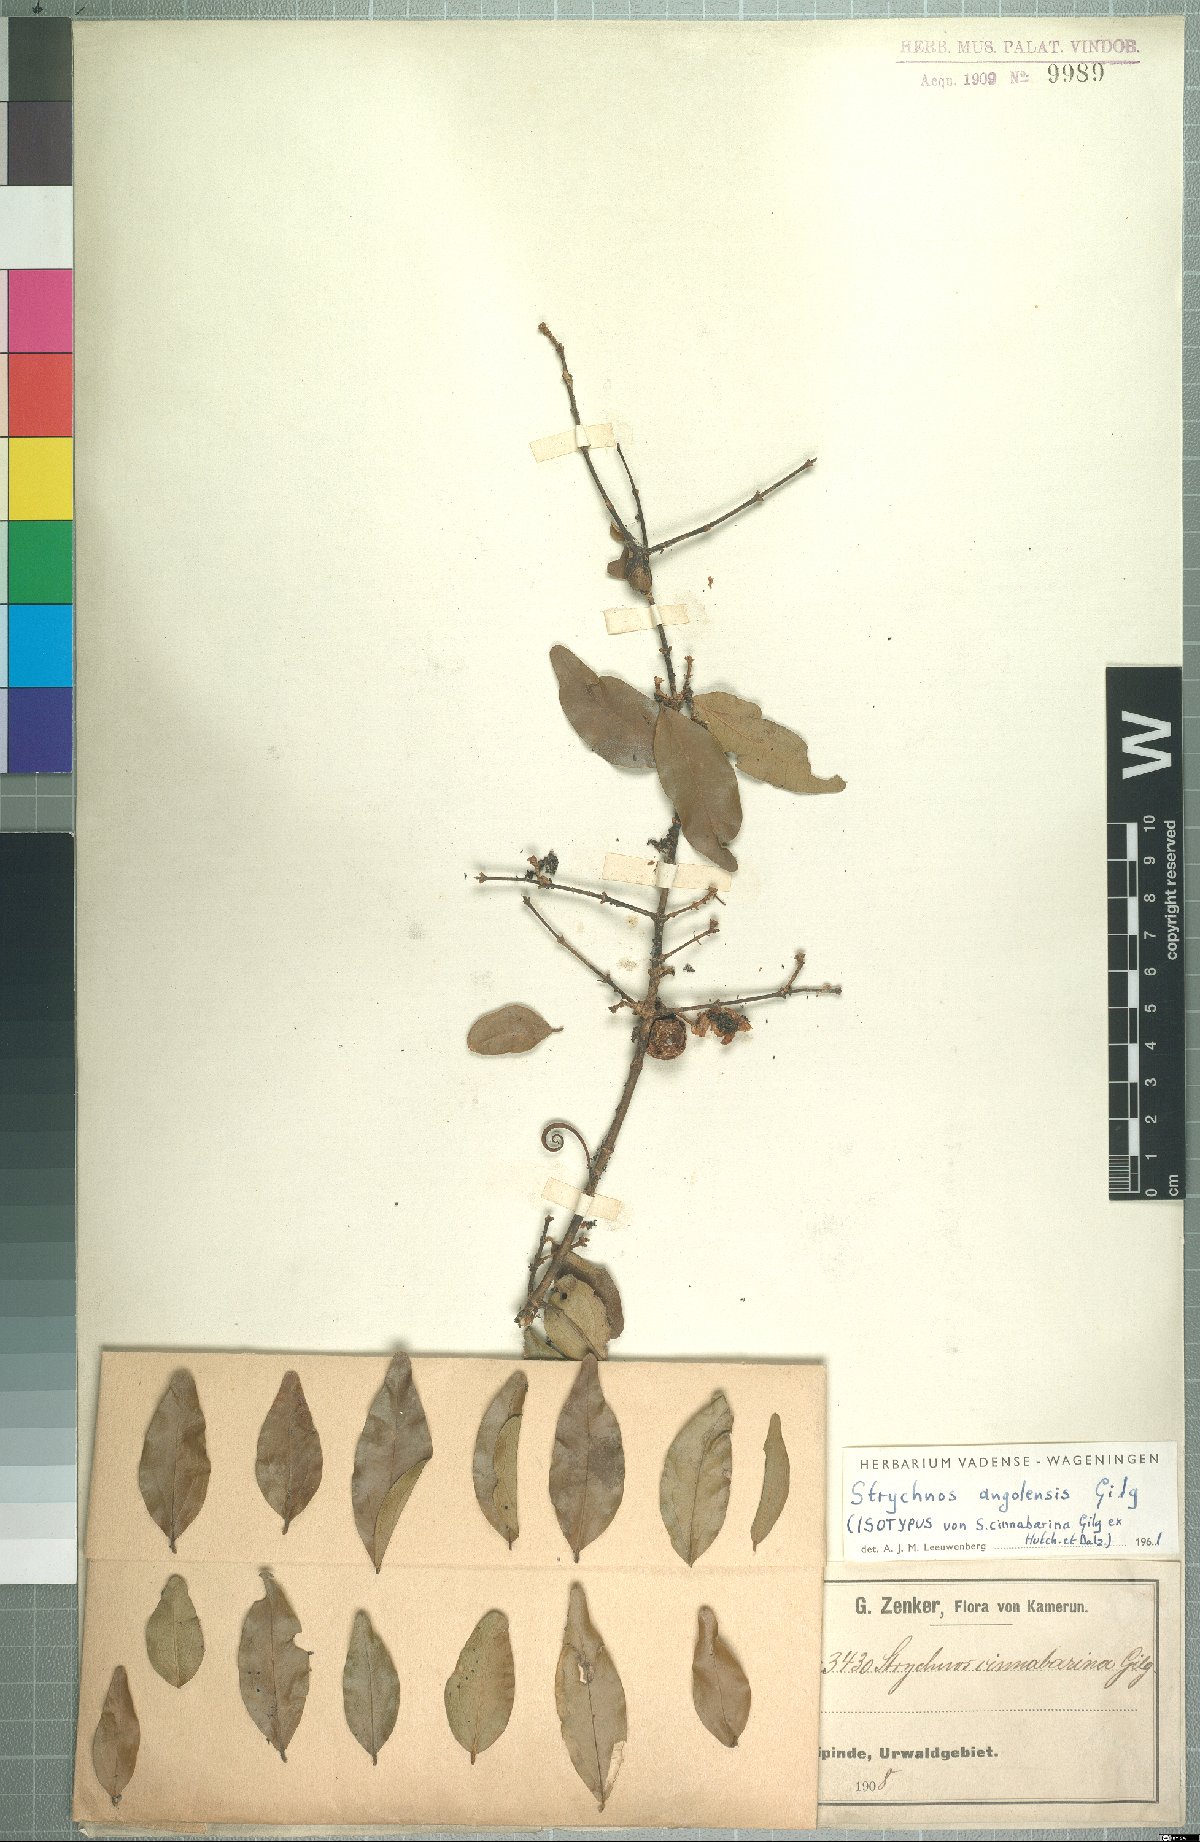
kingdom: Plantae
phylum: Tracheophyta
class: Magnoliopsida
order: Gentianales
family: Loganiaceae
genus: Strychnos
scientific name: Strychnos angolensis
